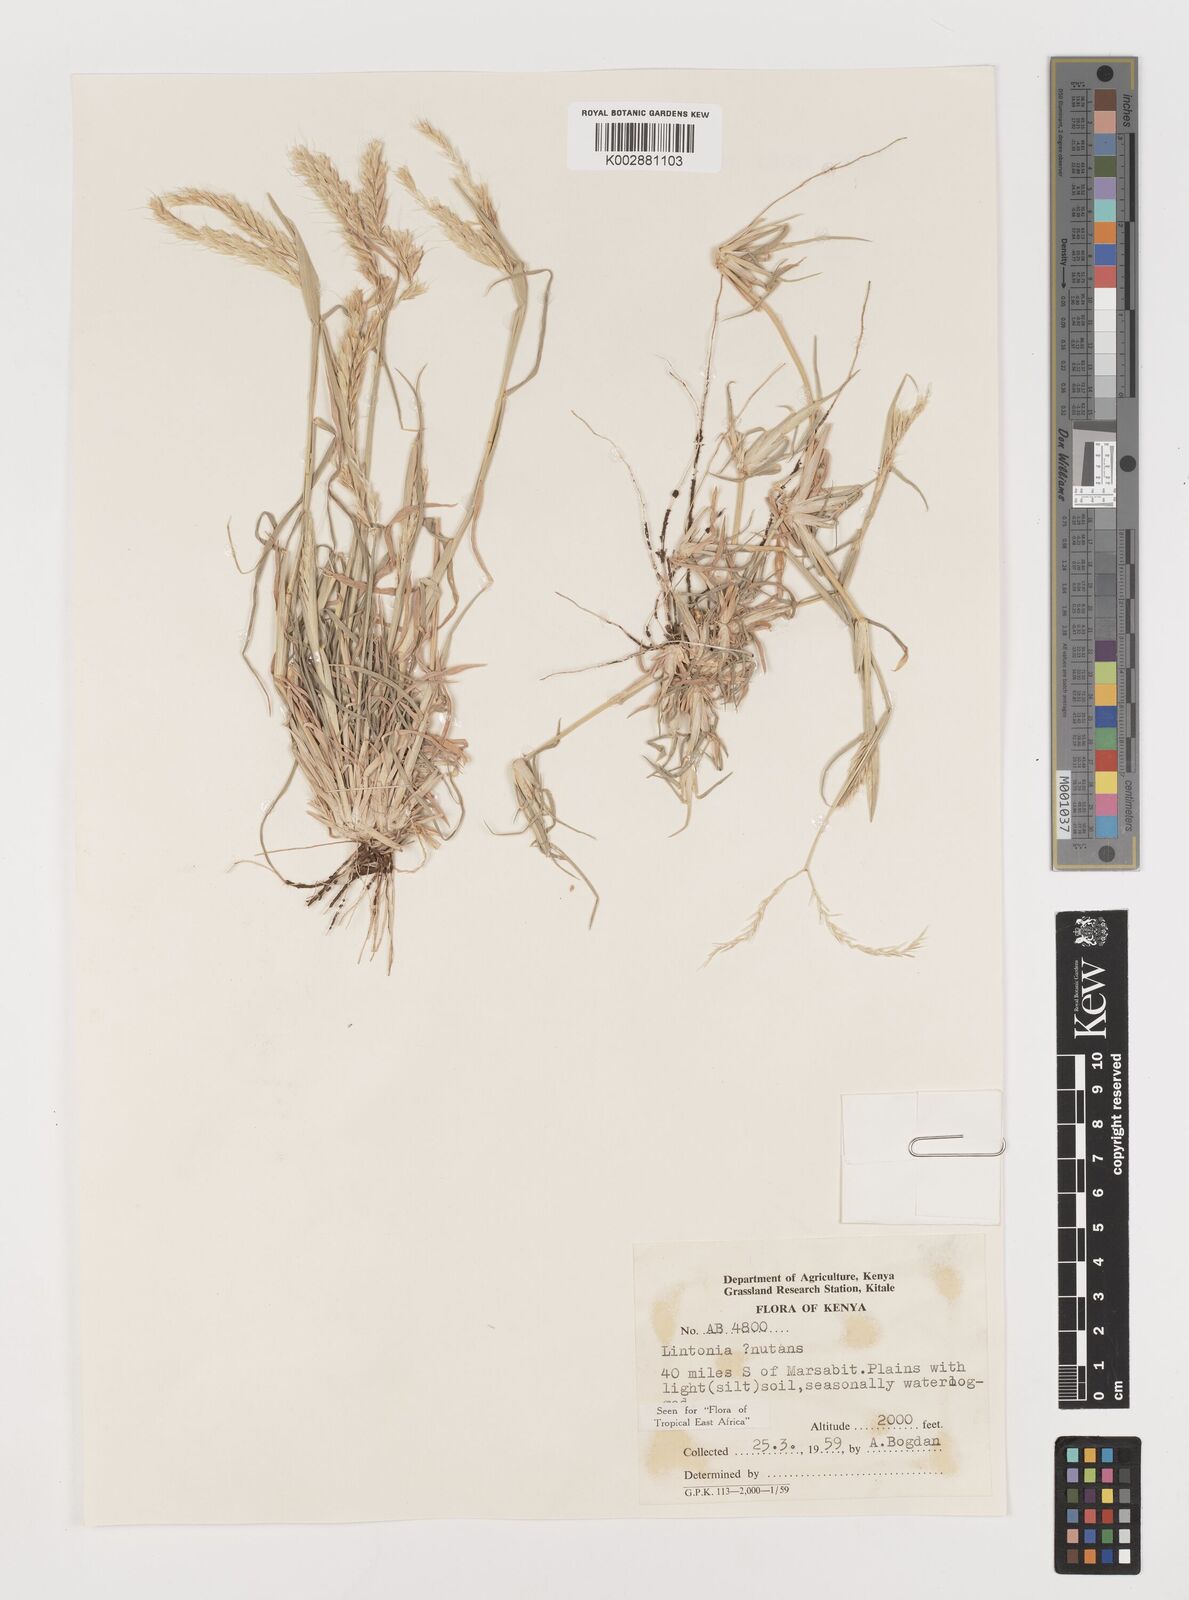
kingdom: Plantae
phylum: Tracheophyta
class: Liliopsida
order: Poales
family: Poaceae
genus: Chloris
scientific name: Chloris nutans
